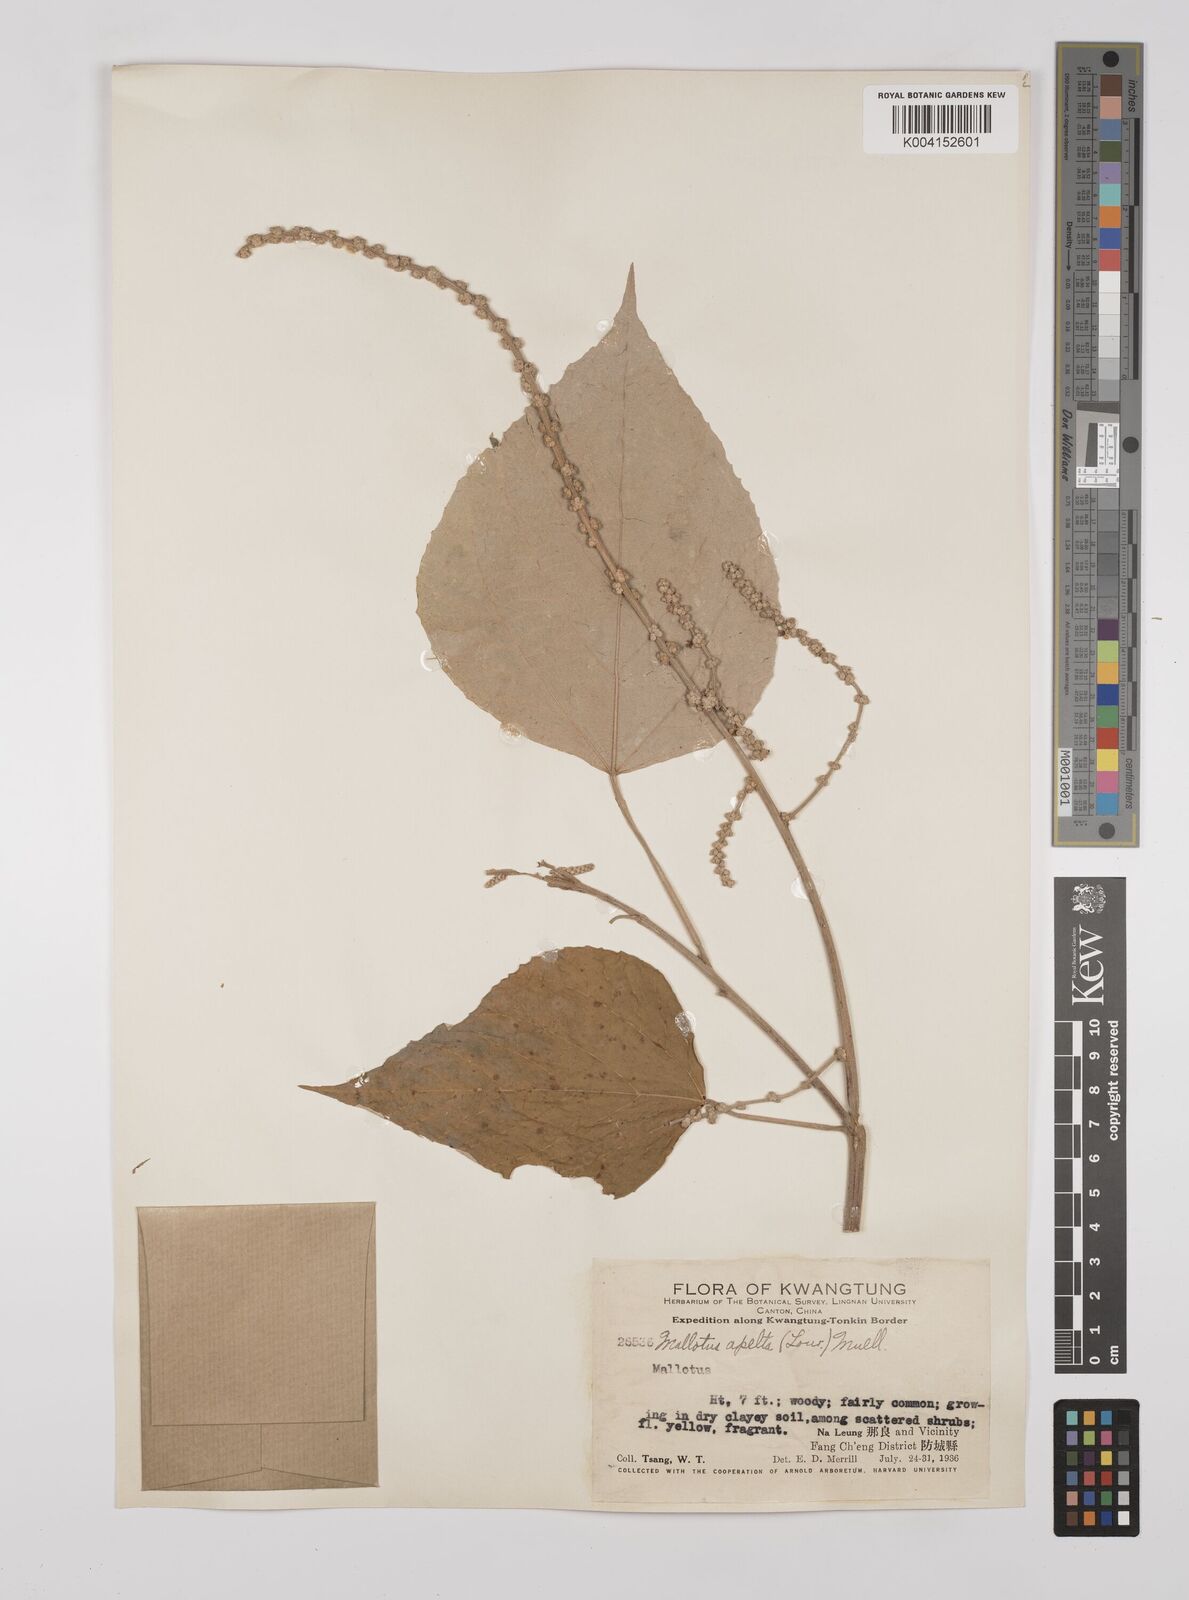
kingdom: Plantae
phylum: Tracheophyta
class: Magnoliopsida
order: Malpighiales
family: Euphorbiaceae
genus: Mallotus
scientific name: Mallotus apelta
